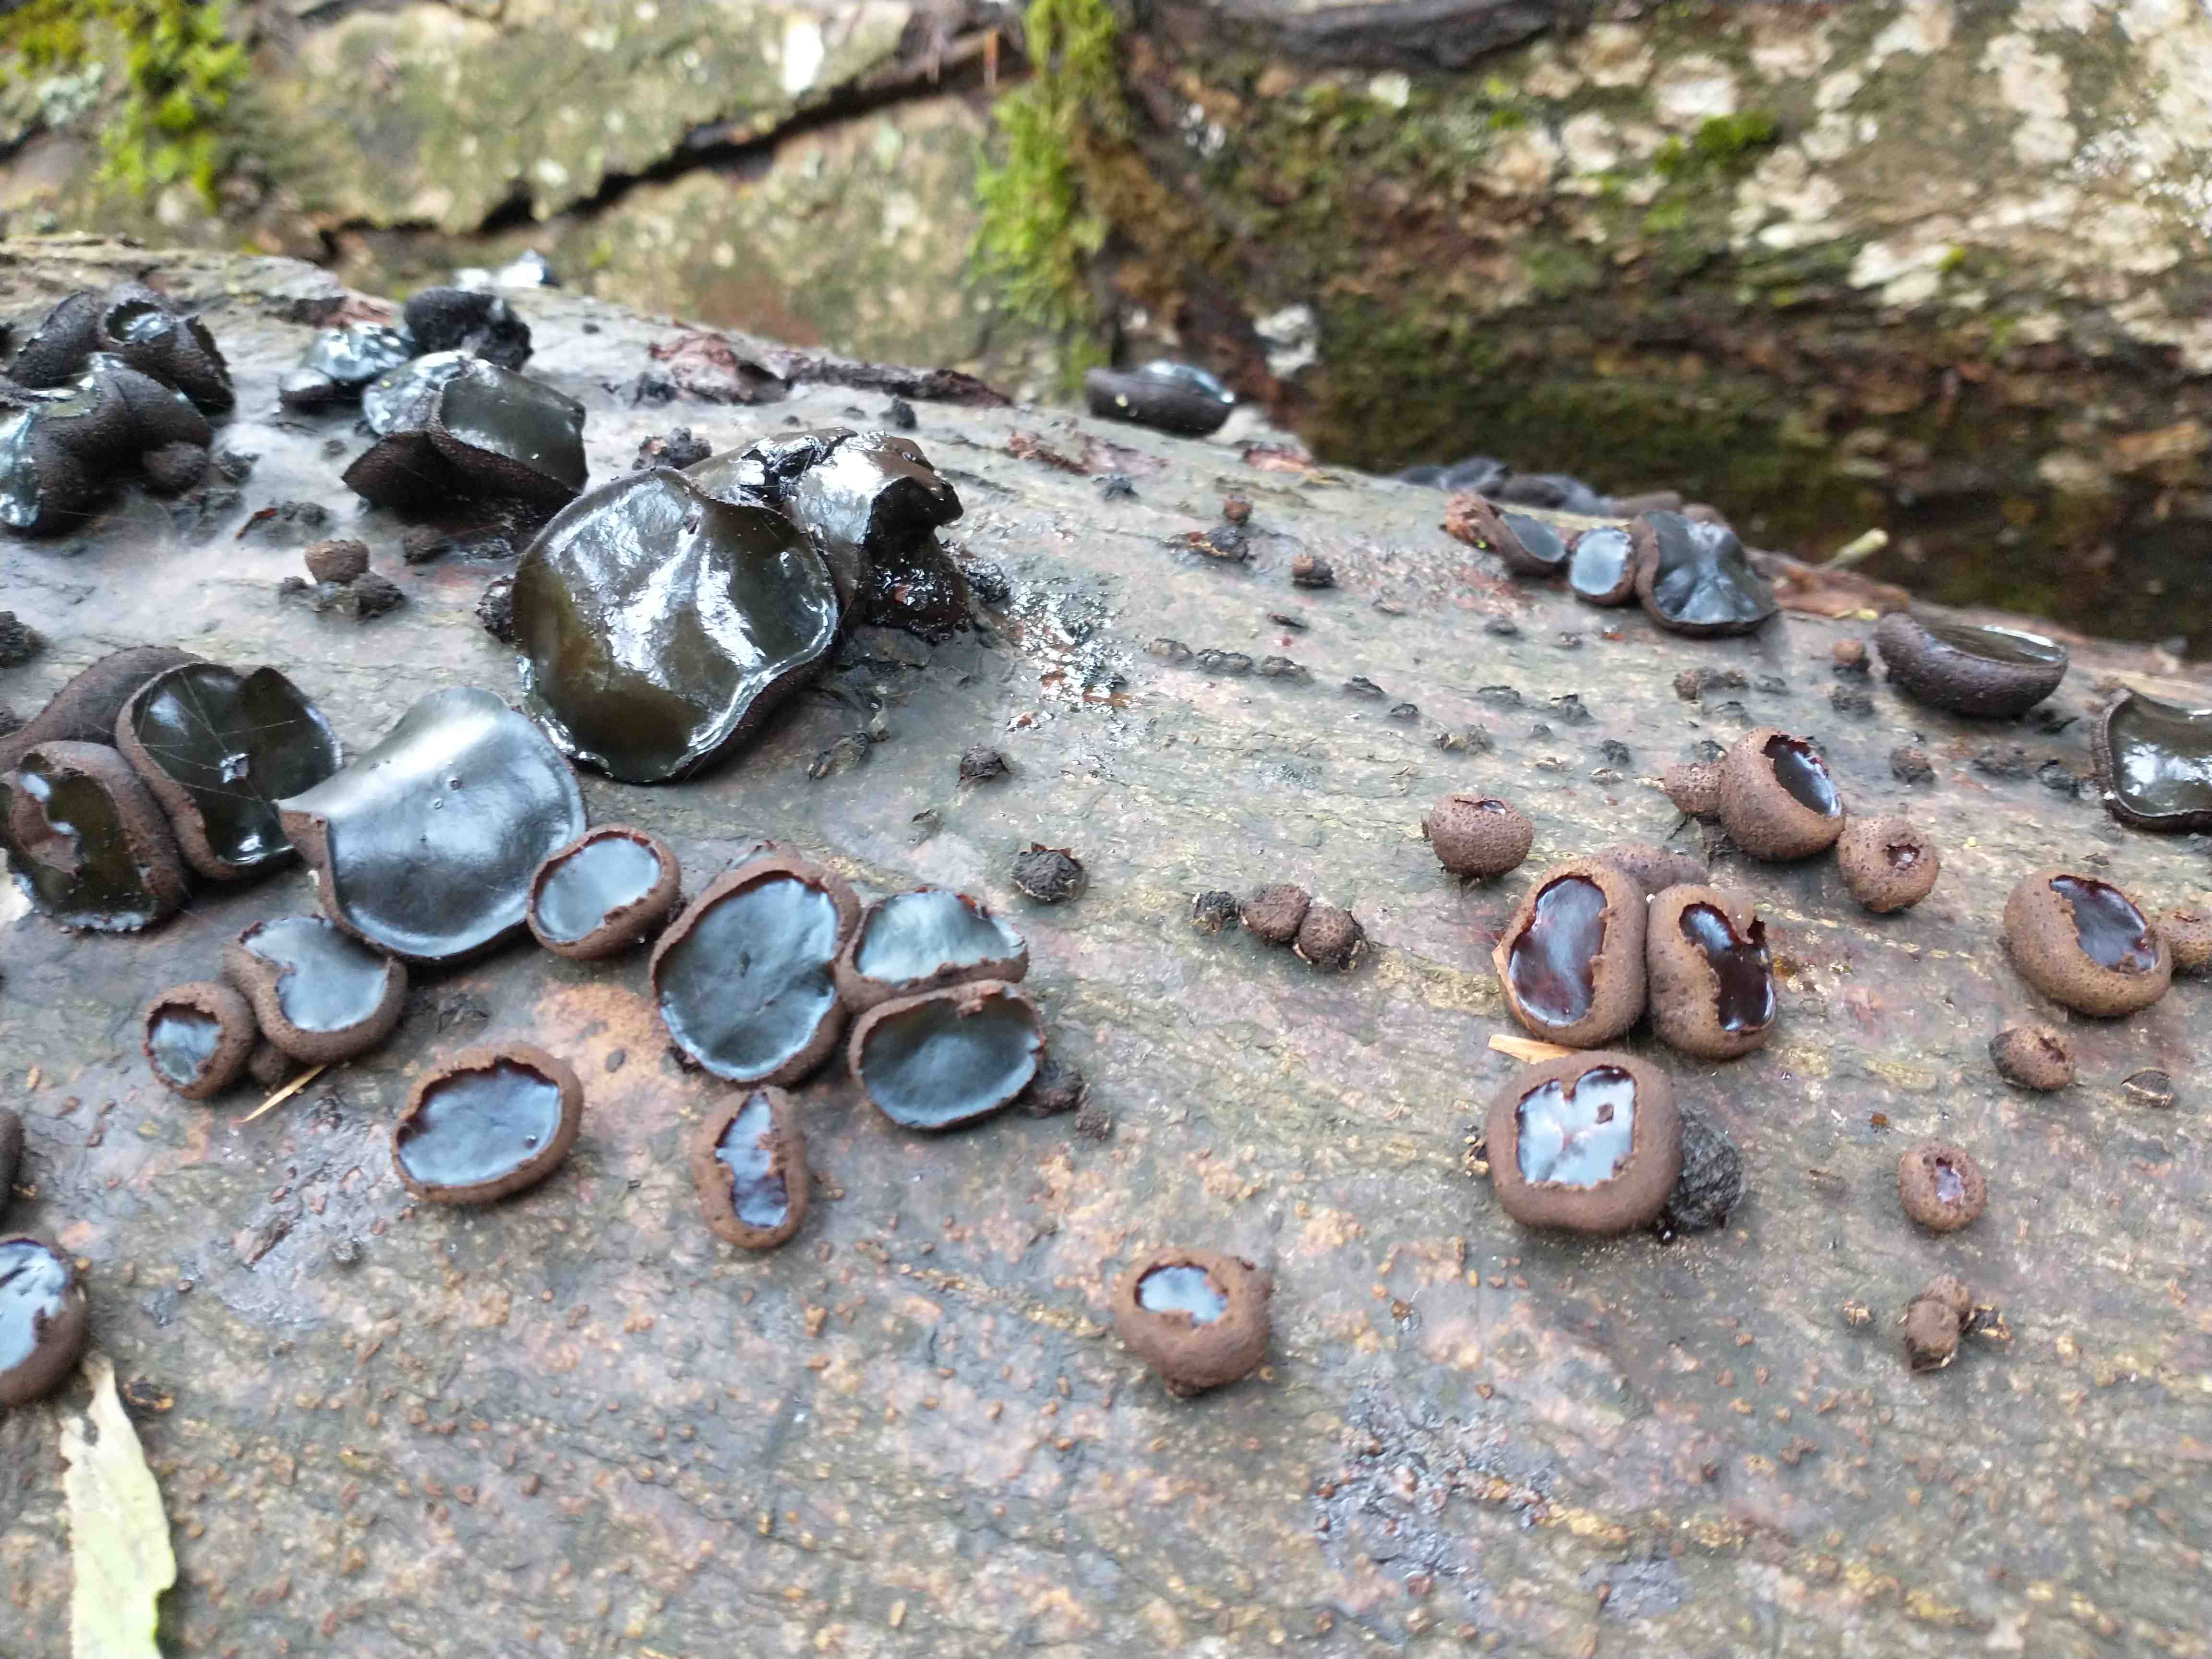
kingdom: Fungi
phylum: Ascomycota
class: Leotiomycetes
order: Phacidiales
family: Phacidiaceae
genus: Bulgaria
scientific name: Bulgaria inquinans
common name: afsmittende topsvamp
